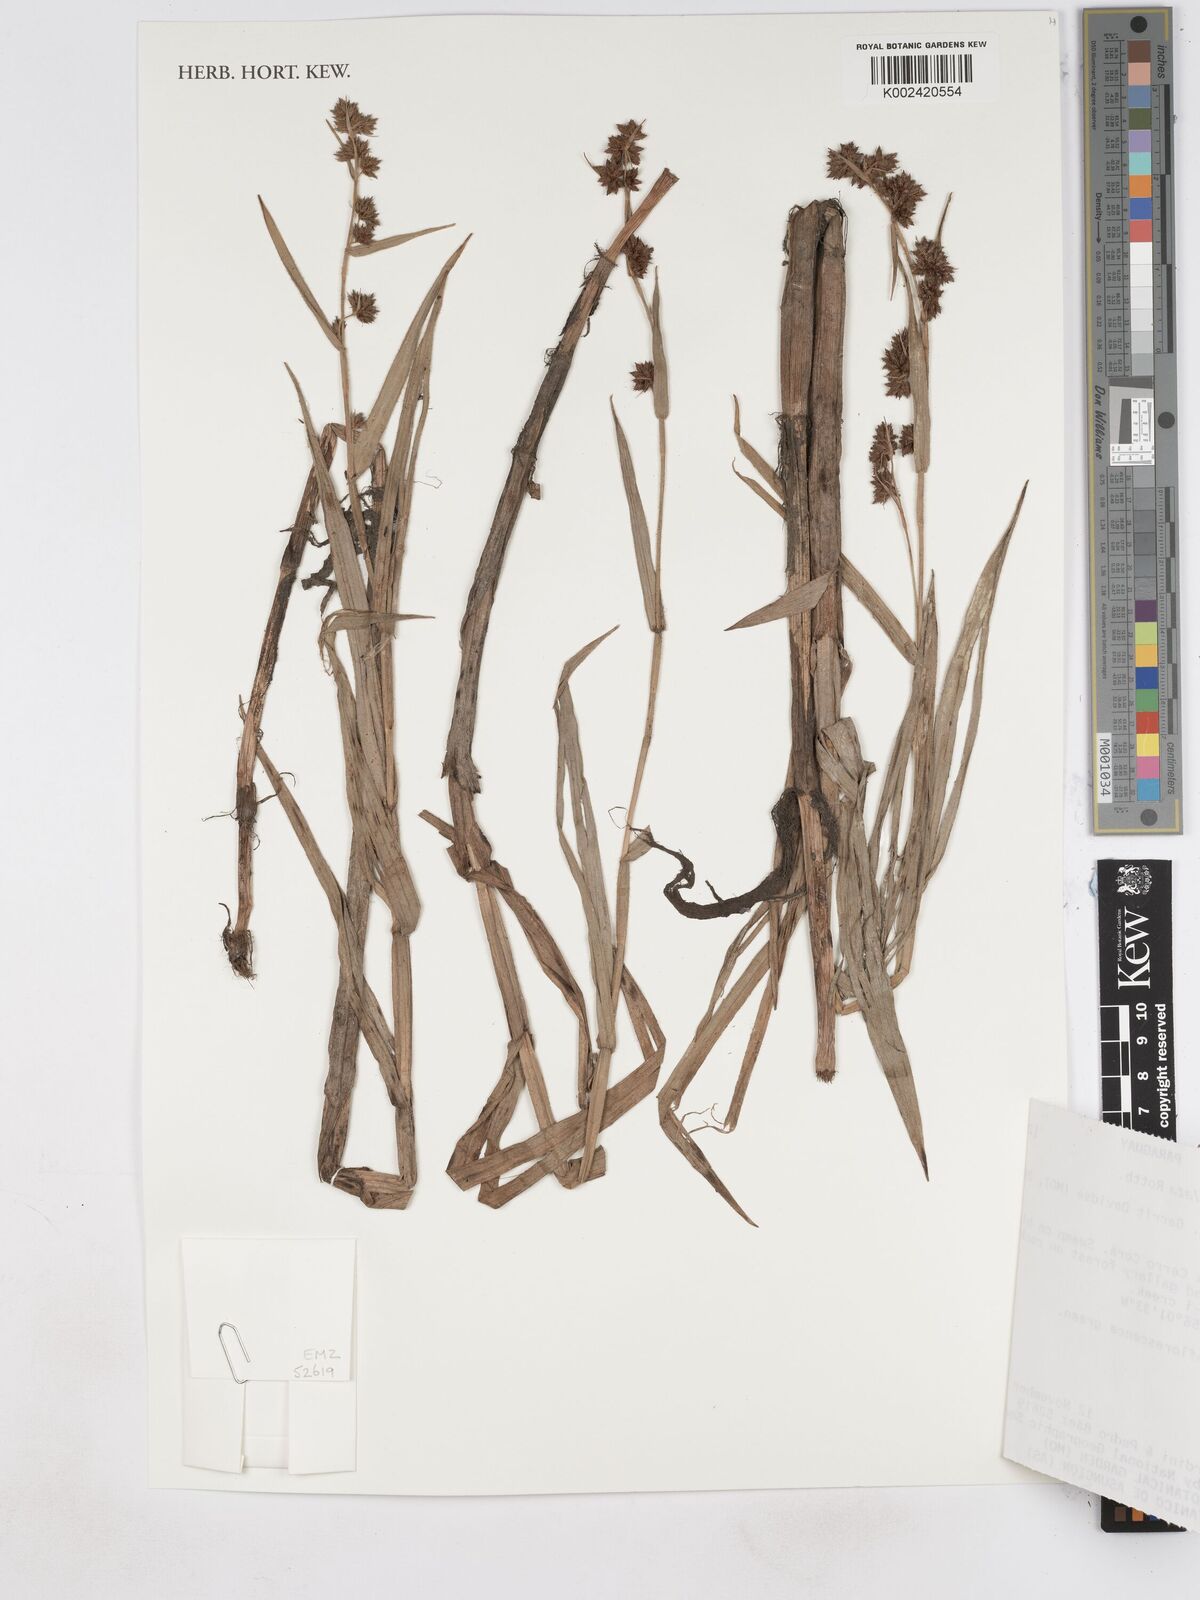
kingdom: Plantae
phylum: Tracheophyta
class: Liliopsida
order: Poales
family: Cyperaceae
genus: Fuirena
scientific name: Fuirena umbellata
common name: Yefen
